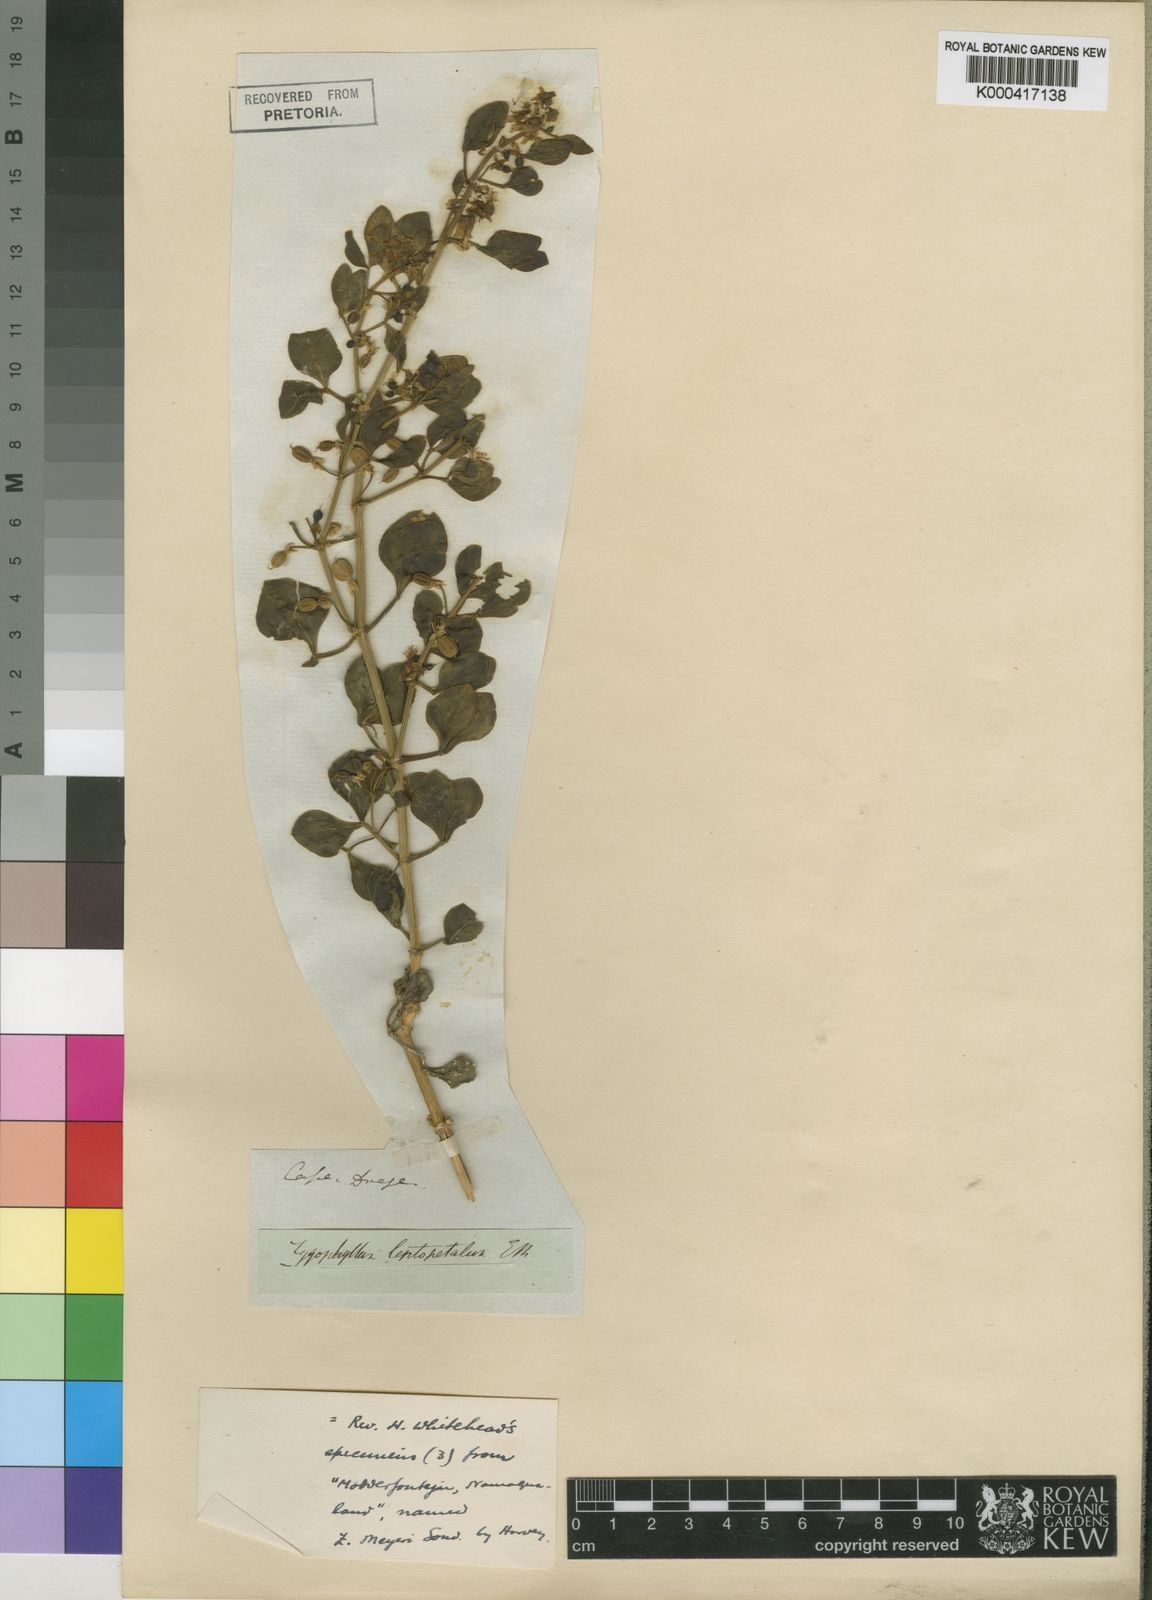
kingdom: Plantae
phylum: Tracheophyta
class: Magnoliopsida
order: Zygophyllales
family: Zygophyllaceae
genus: Roepera
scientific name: Roepera leptopetala
